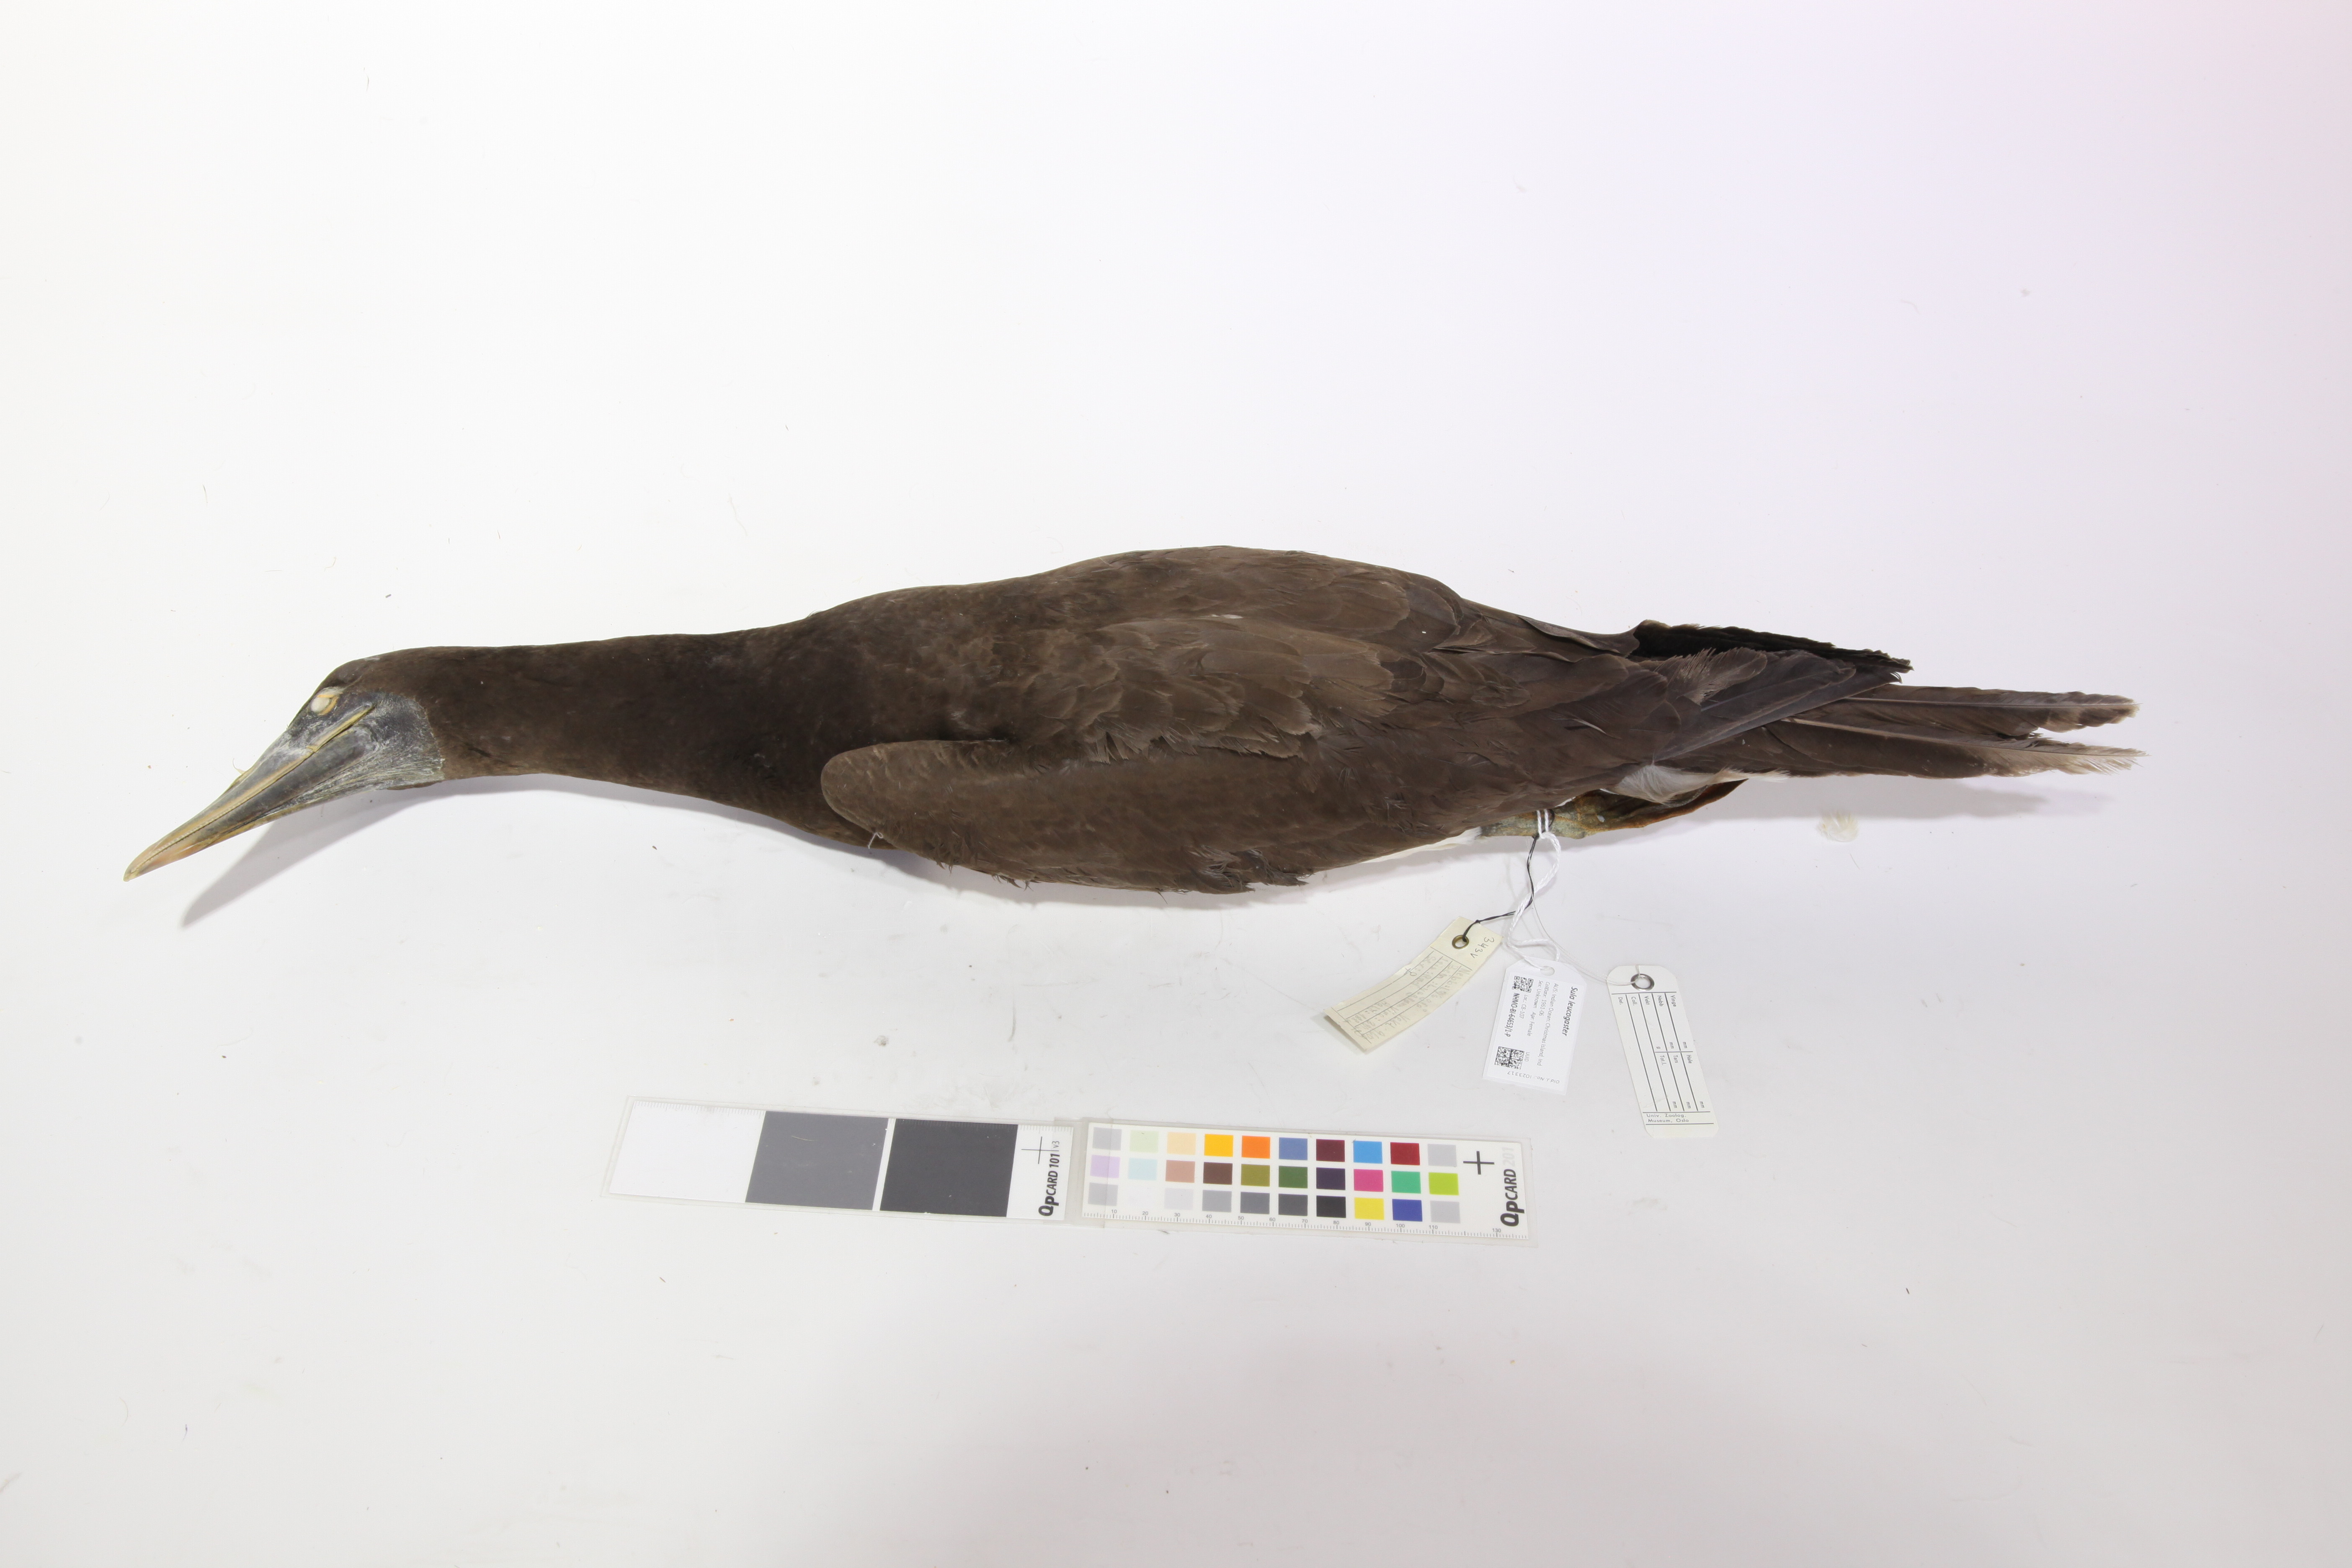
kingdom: Animalia
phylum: Chordata
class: Aves
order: Suliformes
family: Sulidae
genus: Sula
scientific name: Sula leucogaster
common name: Brown booby
